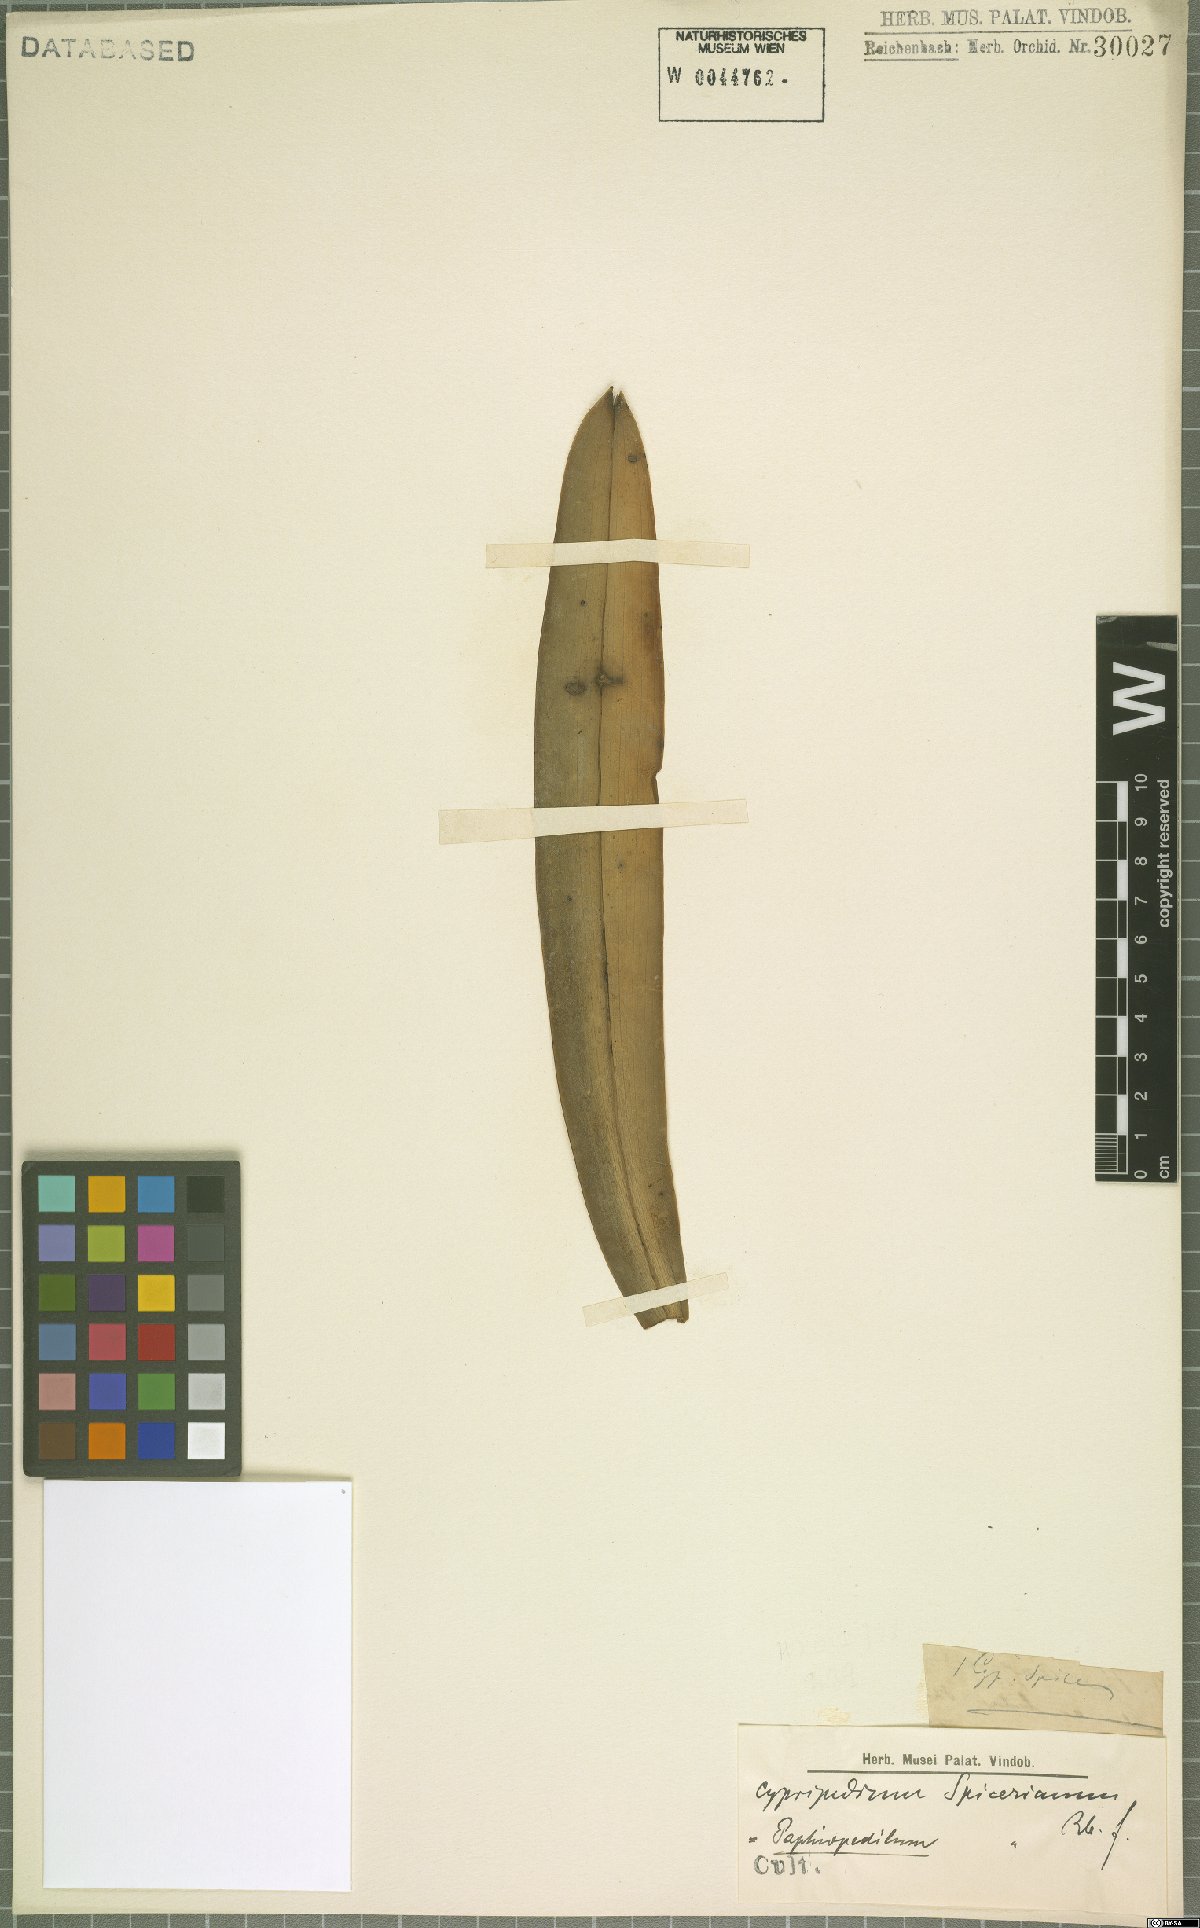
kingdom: Plantae
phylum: Tracheophyta
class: Liliopsida
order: Asparagales
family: Orchidaceae
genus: Paphiopedilum
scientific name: Paphiopedilum spicerianum
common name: Spicer’s paphiopedilum
